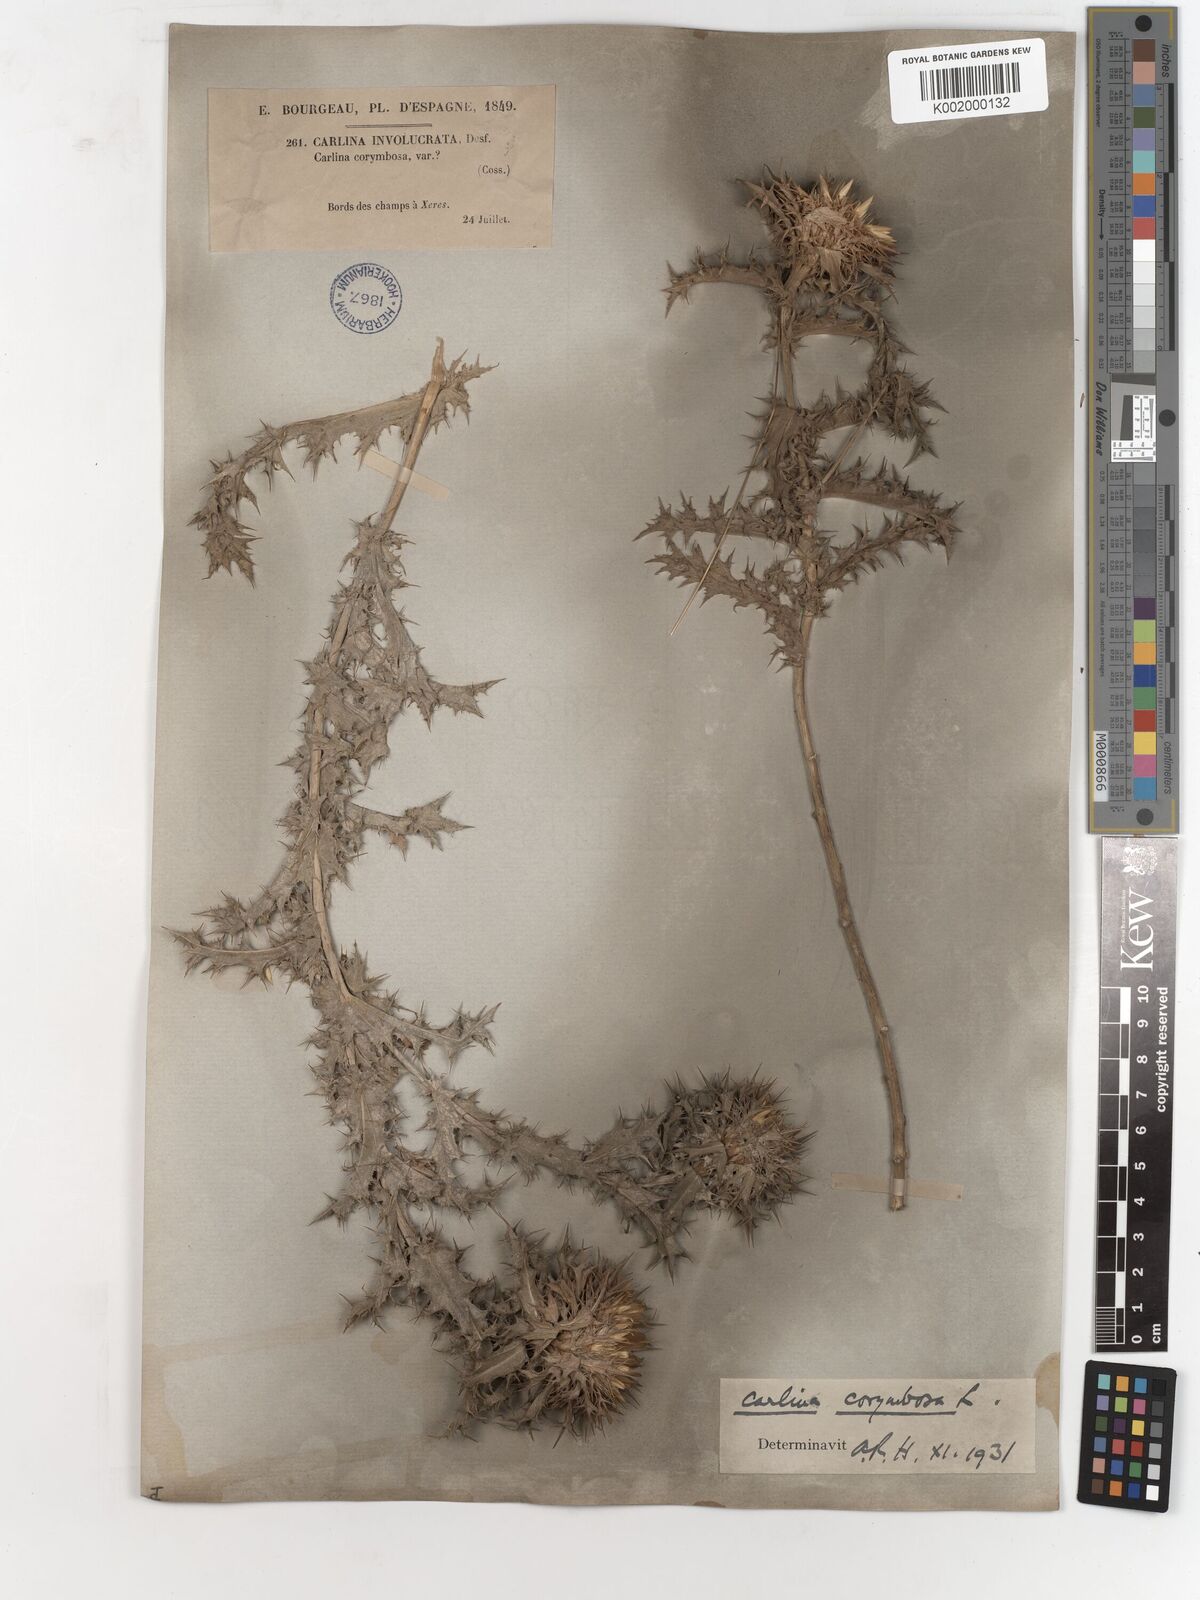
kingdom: Plantae
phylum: Tracheophyta
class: Magnoliopsida
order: Asterales
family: Asteraceae
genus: Carlina
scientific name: Carlina corymbosa
